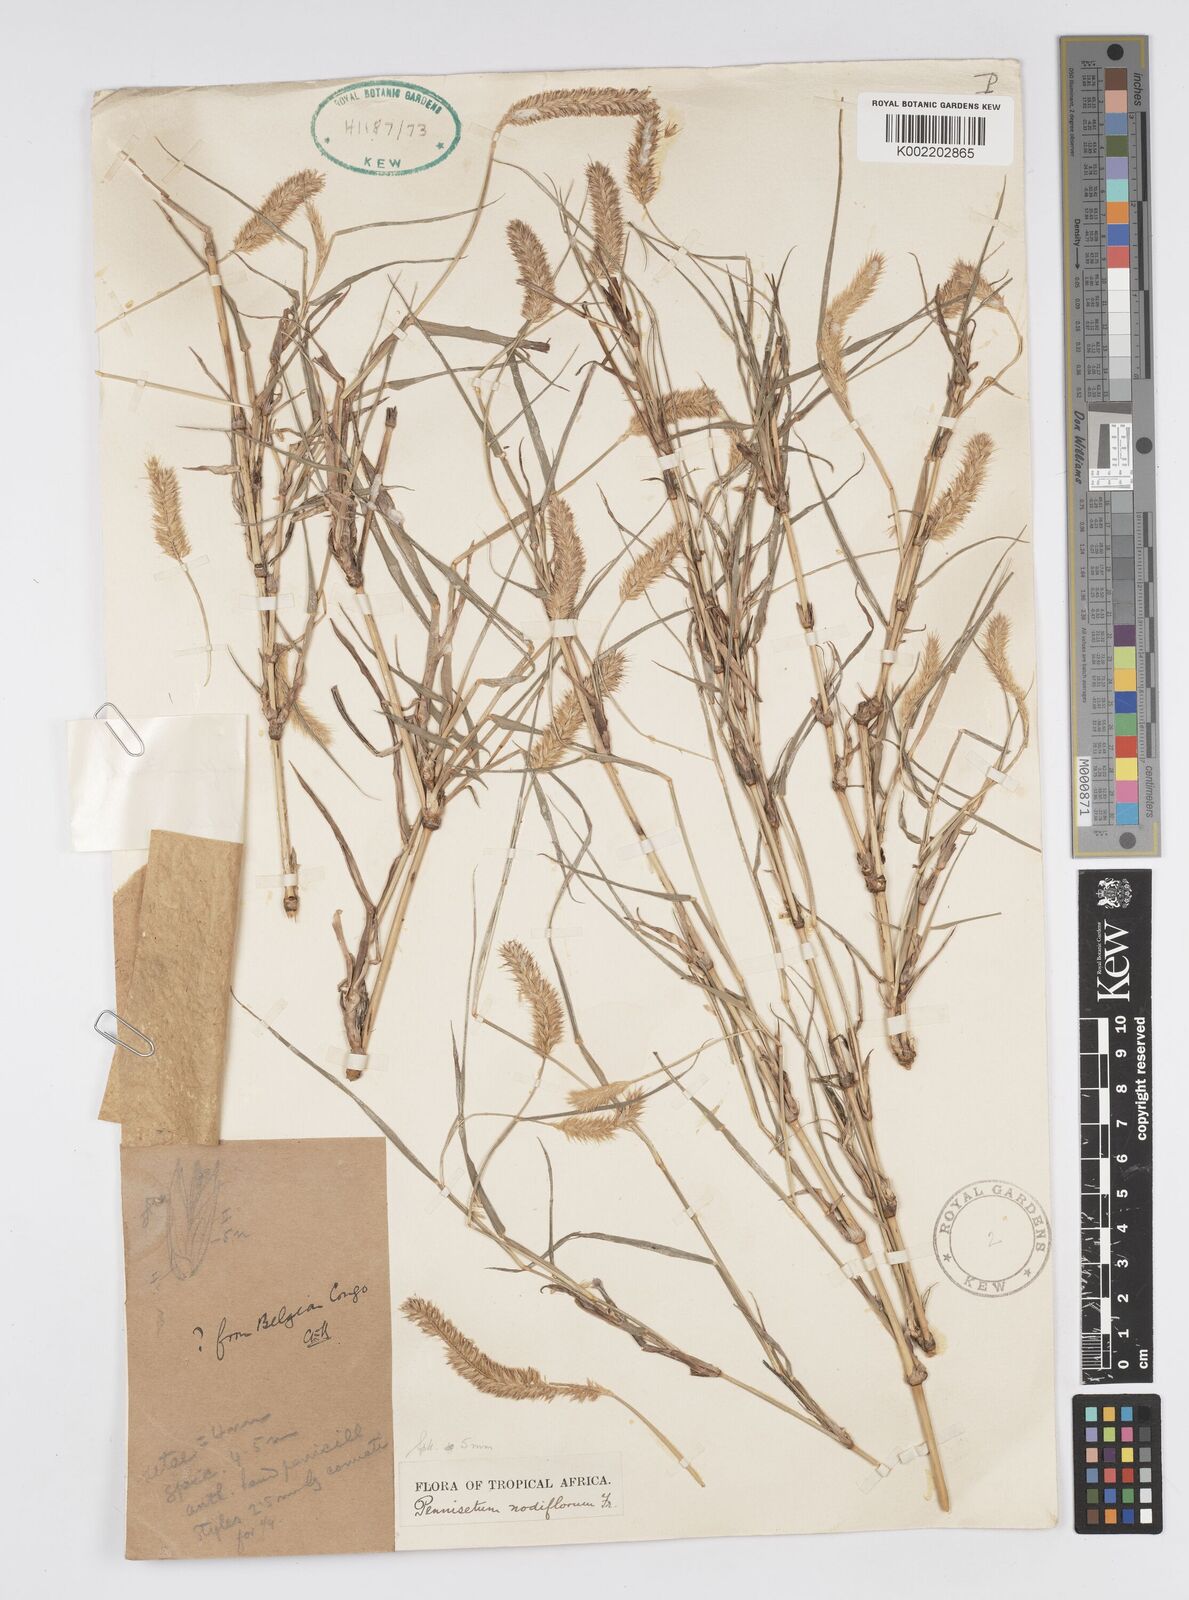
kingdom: Plantae
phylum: Tracheophyta
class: Liliopsida
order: Poales
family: Poaceae
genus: Cenchrus
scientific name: Cenchrus nodiflorus
